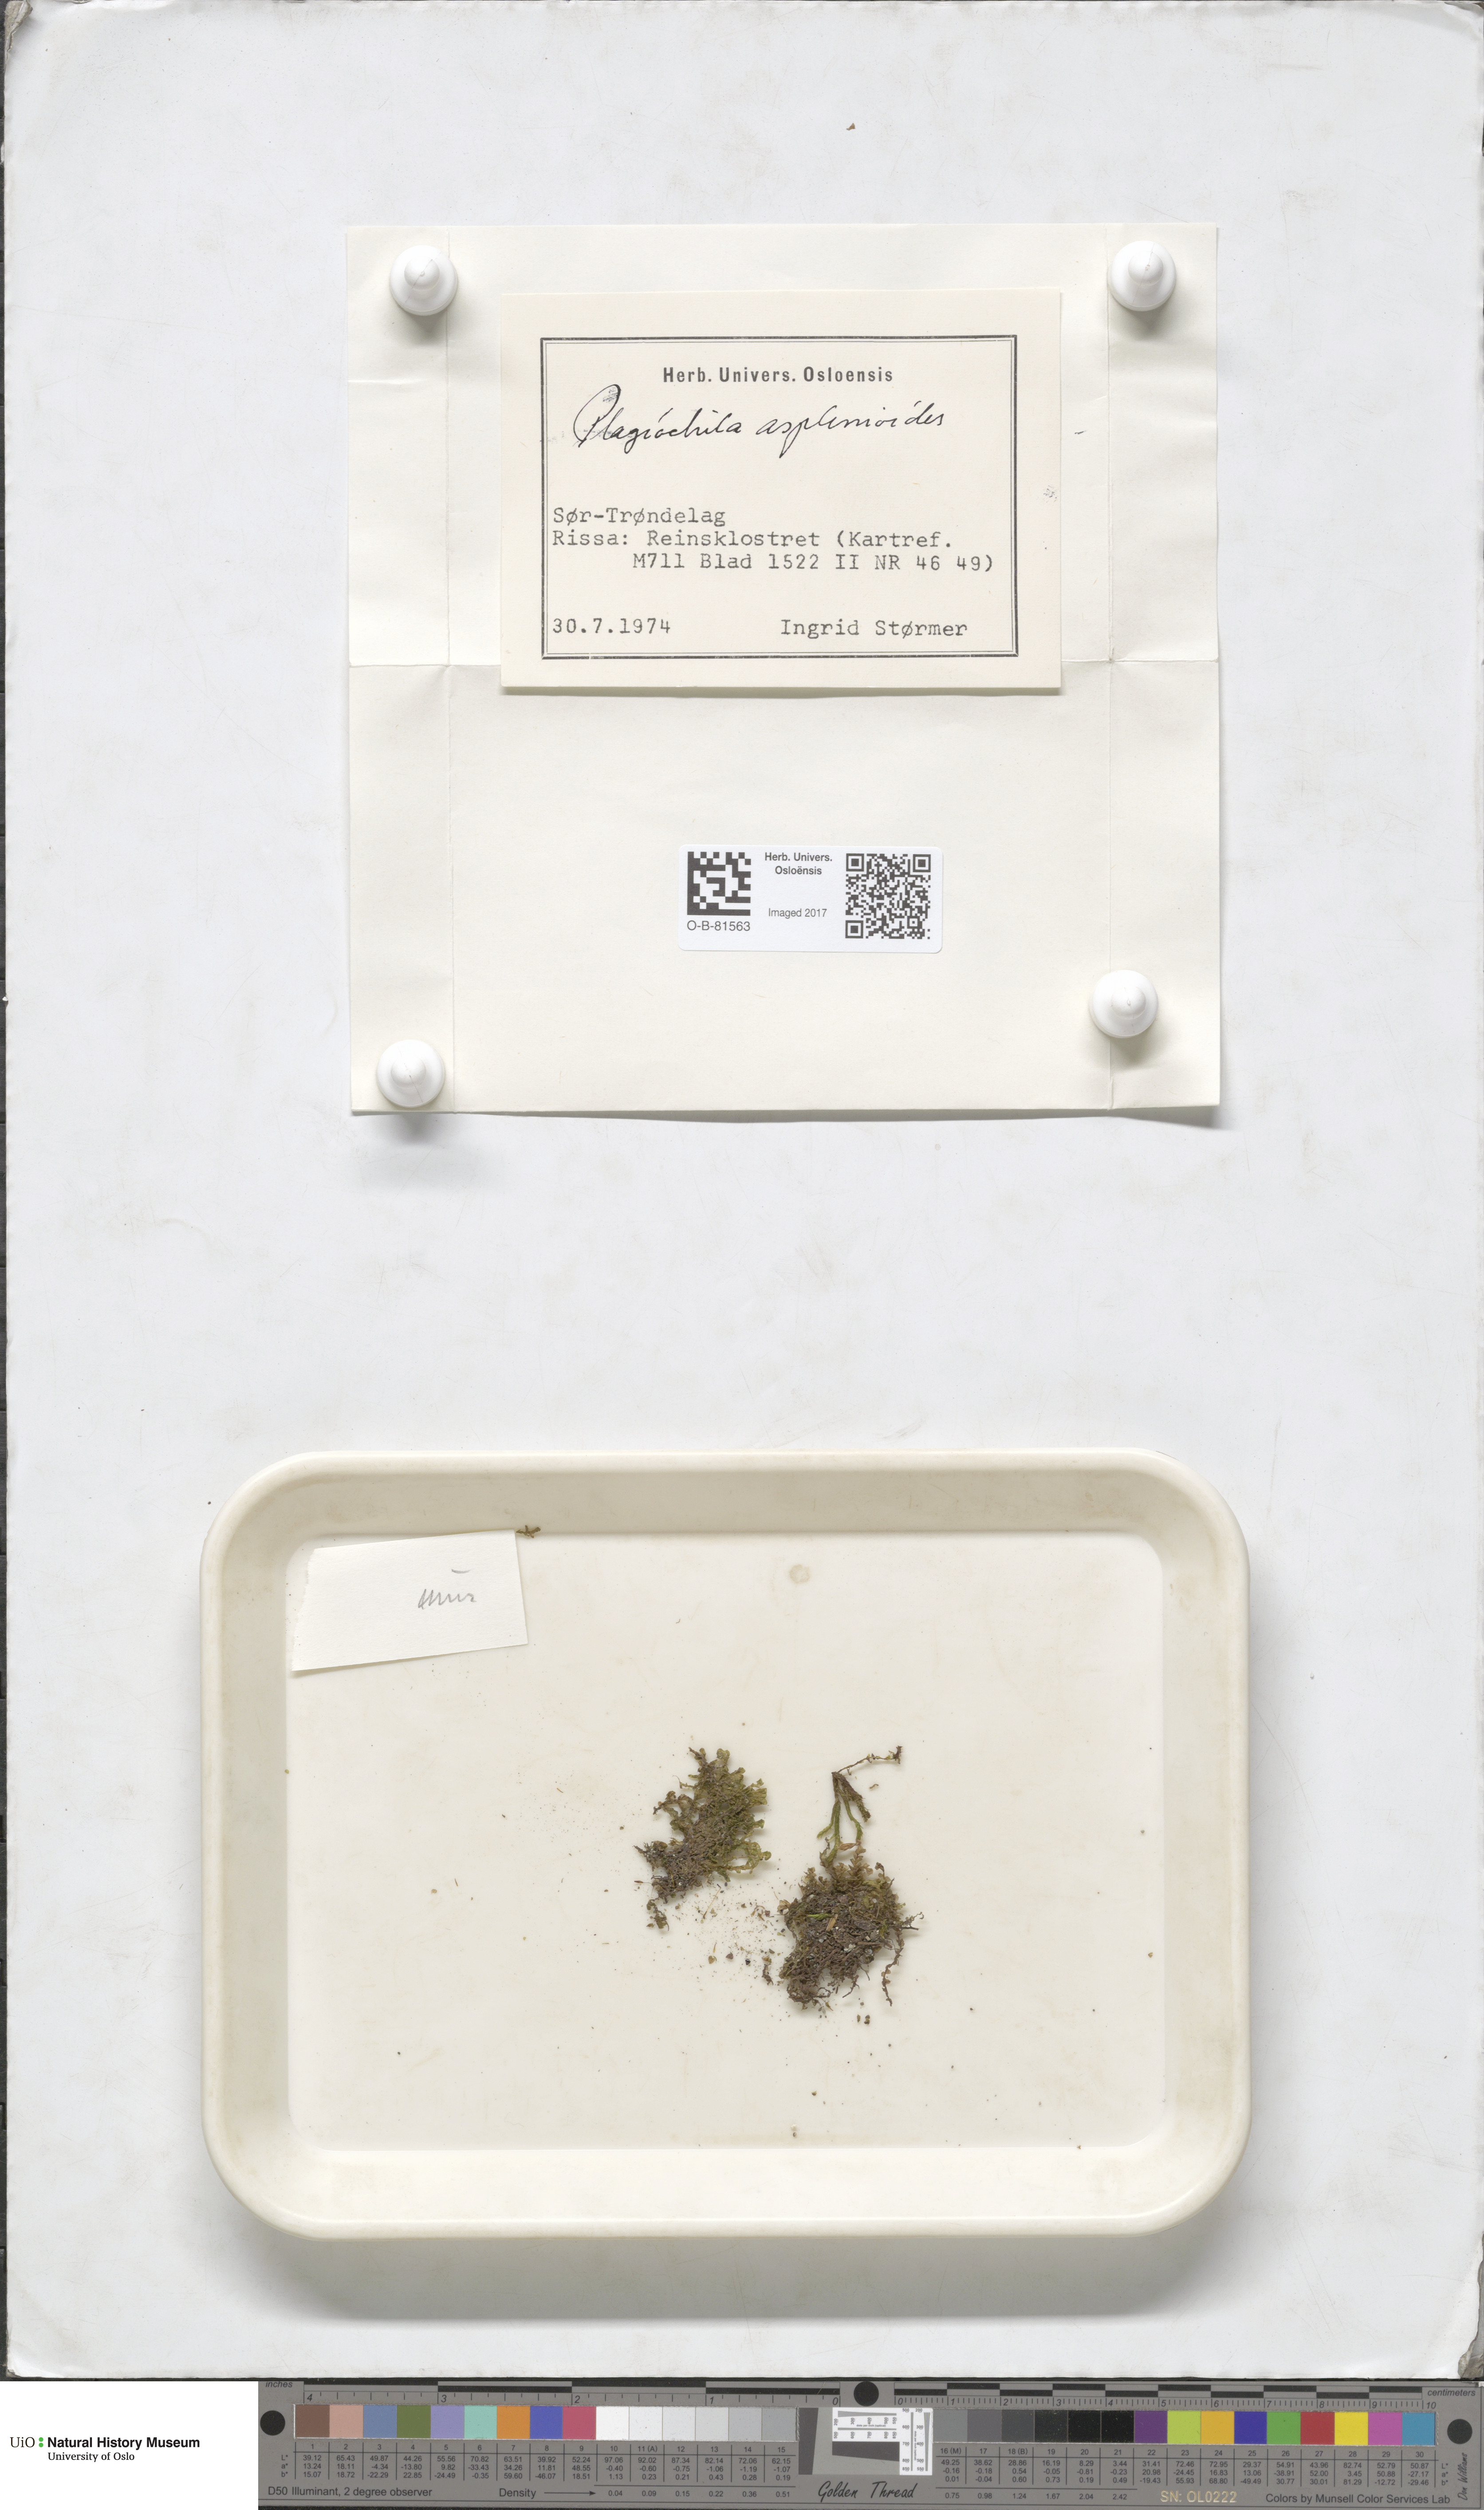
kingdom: Plantae
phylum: Marchantiophyta
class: Jungermanniopsida
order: Jungermanniales
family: Plagiochilaceae
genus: Plagiochila
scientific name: Plagiochila asplenioides
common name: Greater featherwort
